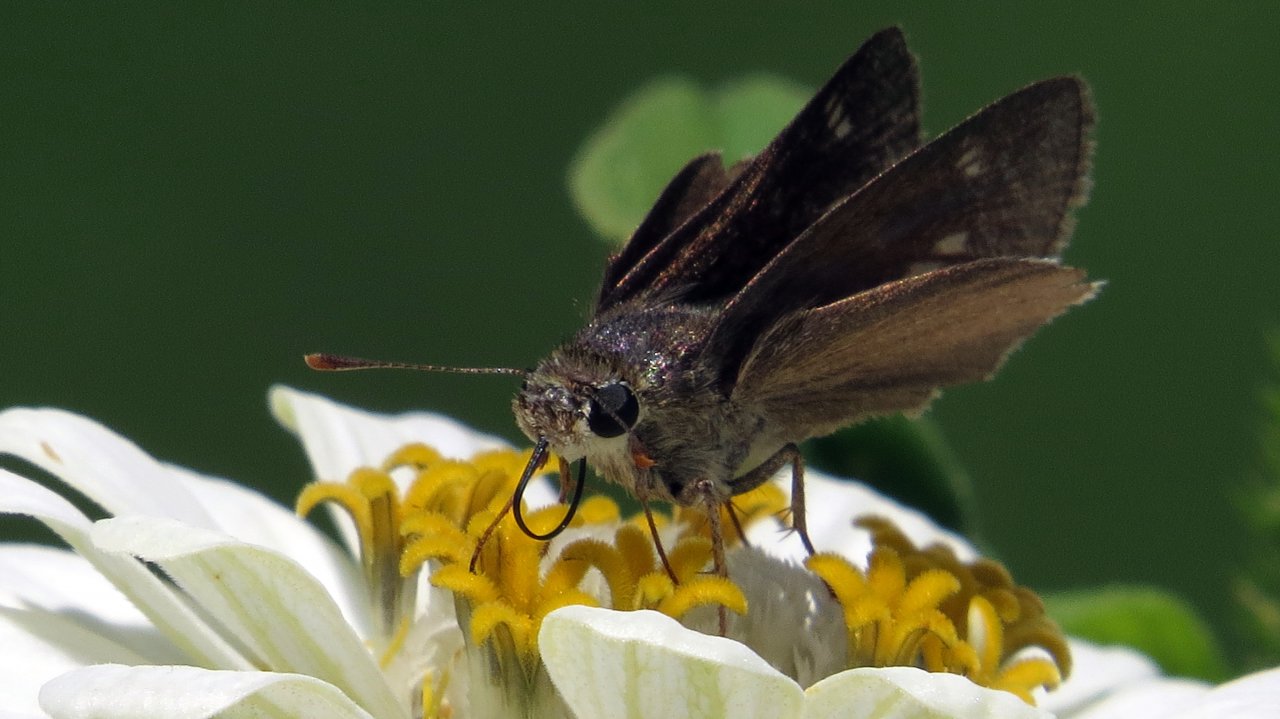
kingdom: Animalia
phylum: Arthropoda
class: Insecta
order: Lepidoptera
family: Hesperiidae
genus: Vernia
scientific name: Vernia verna
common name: Little Glassywing
